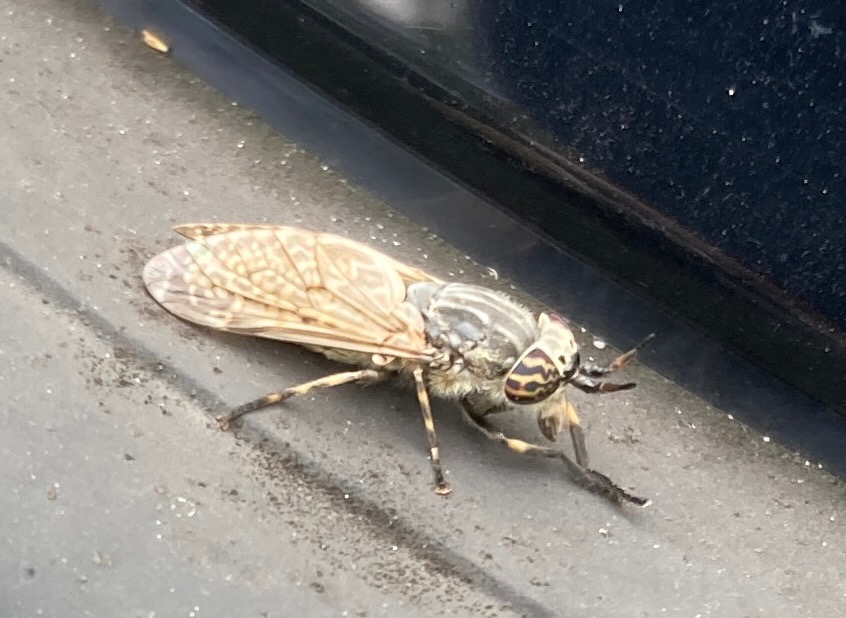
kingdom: Animalia
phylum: Arthropoda
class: Insecta
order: Diptera
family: Tabanidae
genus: Haematopota
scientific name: Haematopota pluvialis
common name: Regnklæg
